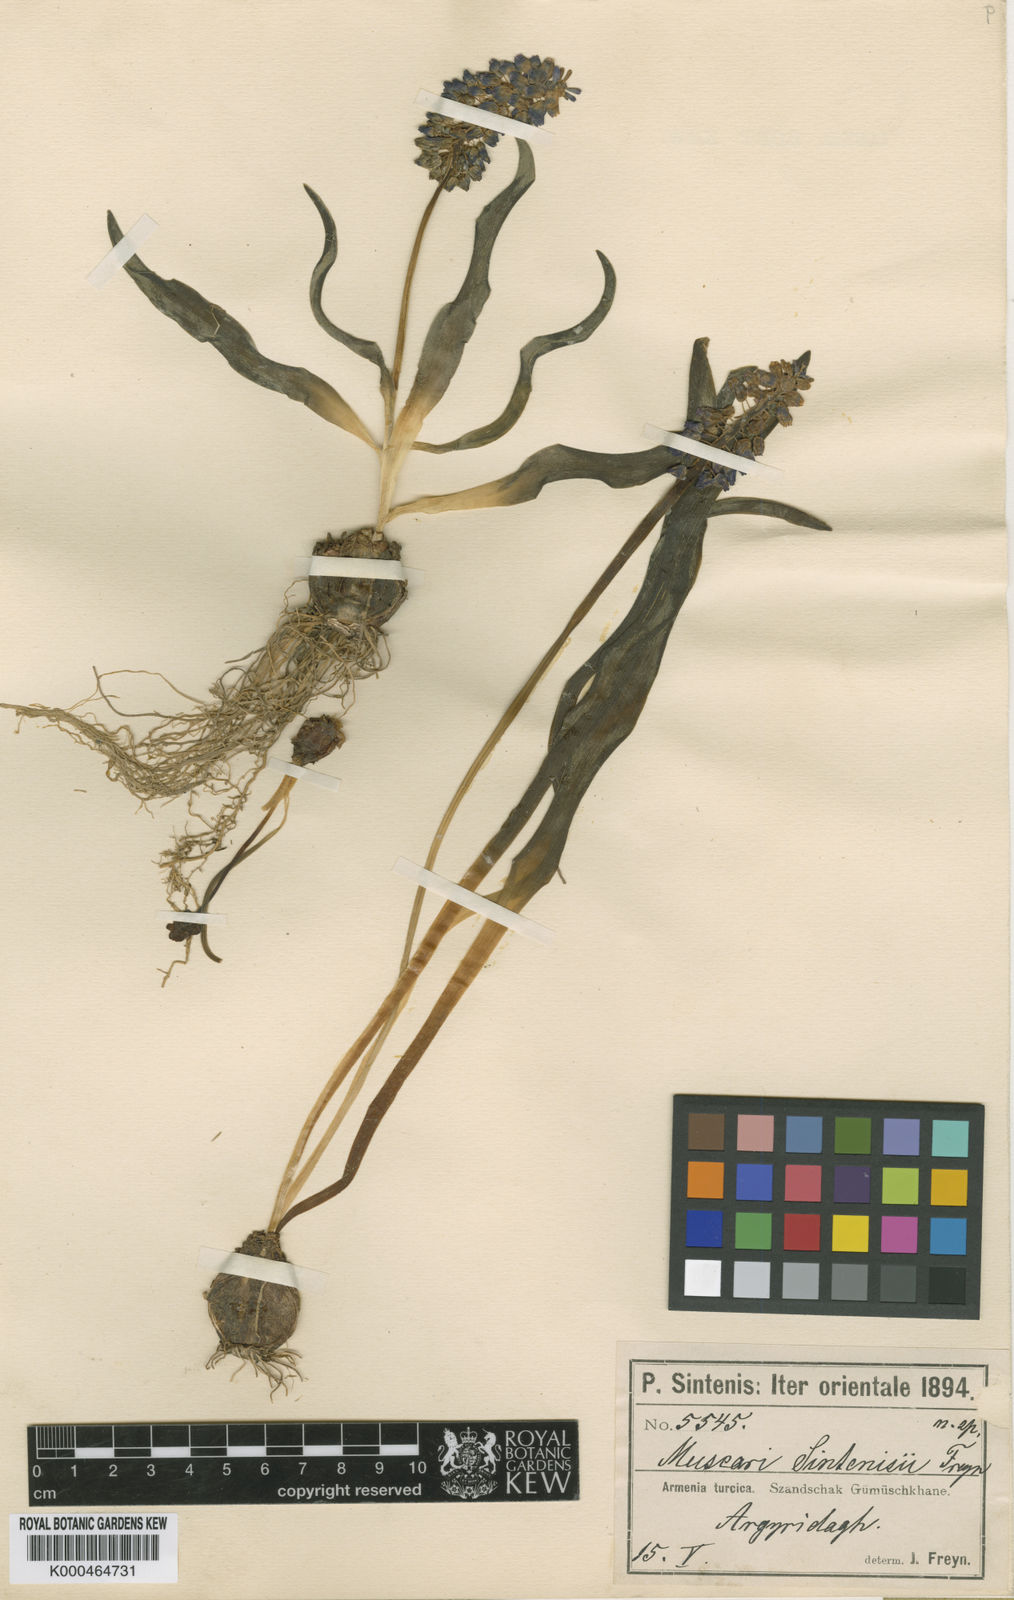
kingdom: Plantae
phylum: Tracheophyta
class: Liliopsida
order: Asparagales
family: Asparagaceae
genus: Muscari
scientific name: Muscari
